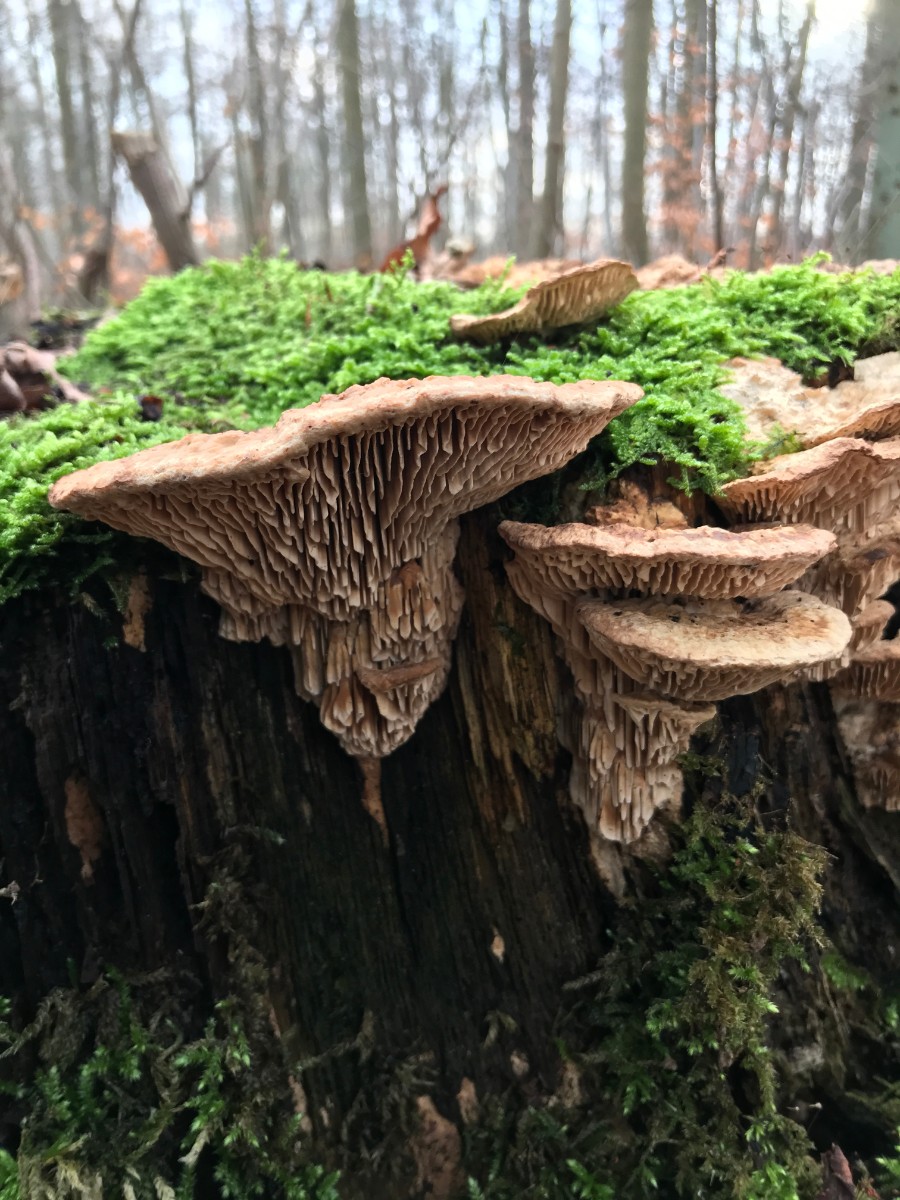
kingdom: Fungi
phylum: Basidiomycota
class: Agaricomycetes
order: Polyporales
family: Fomitopsidaceae
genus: Daedalea
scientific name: Daedalea quercina
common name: ege-labyrintsvamp
